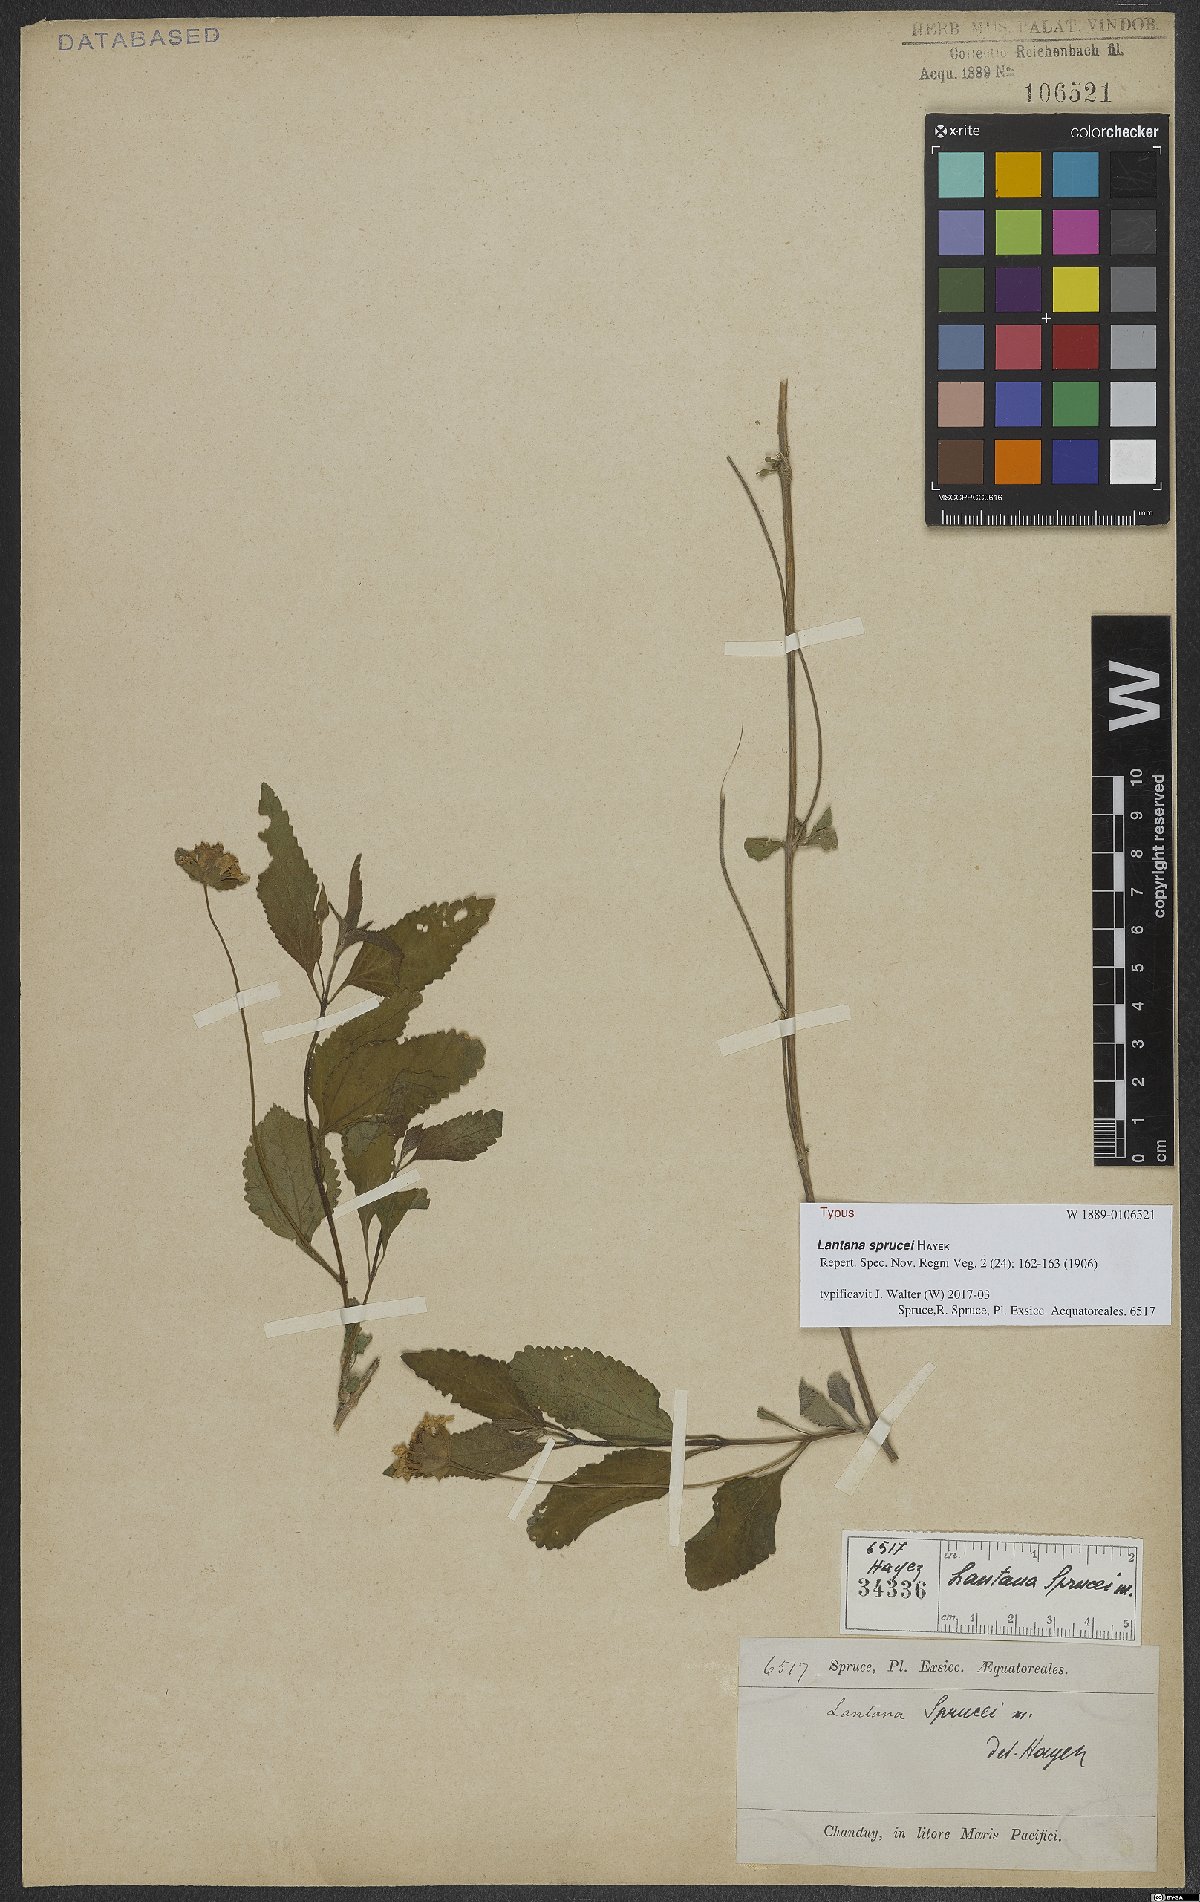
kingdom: Plantae
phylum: Tracheophyta
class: Magnoliopsida
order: Lamiales
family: Verbenaceae
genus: Lantana
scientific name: Lantana sprucei
